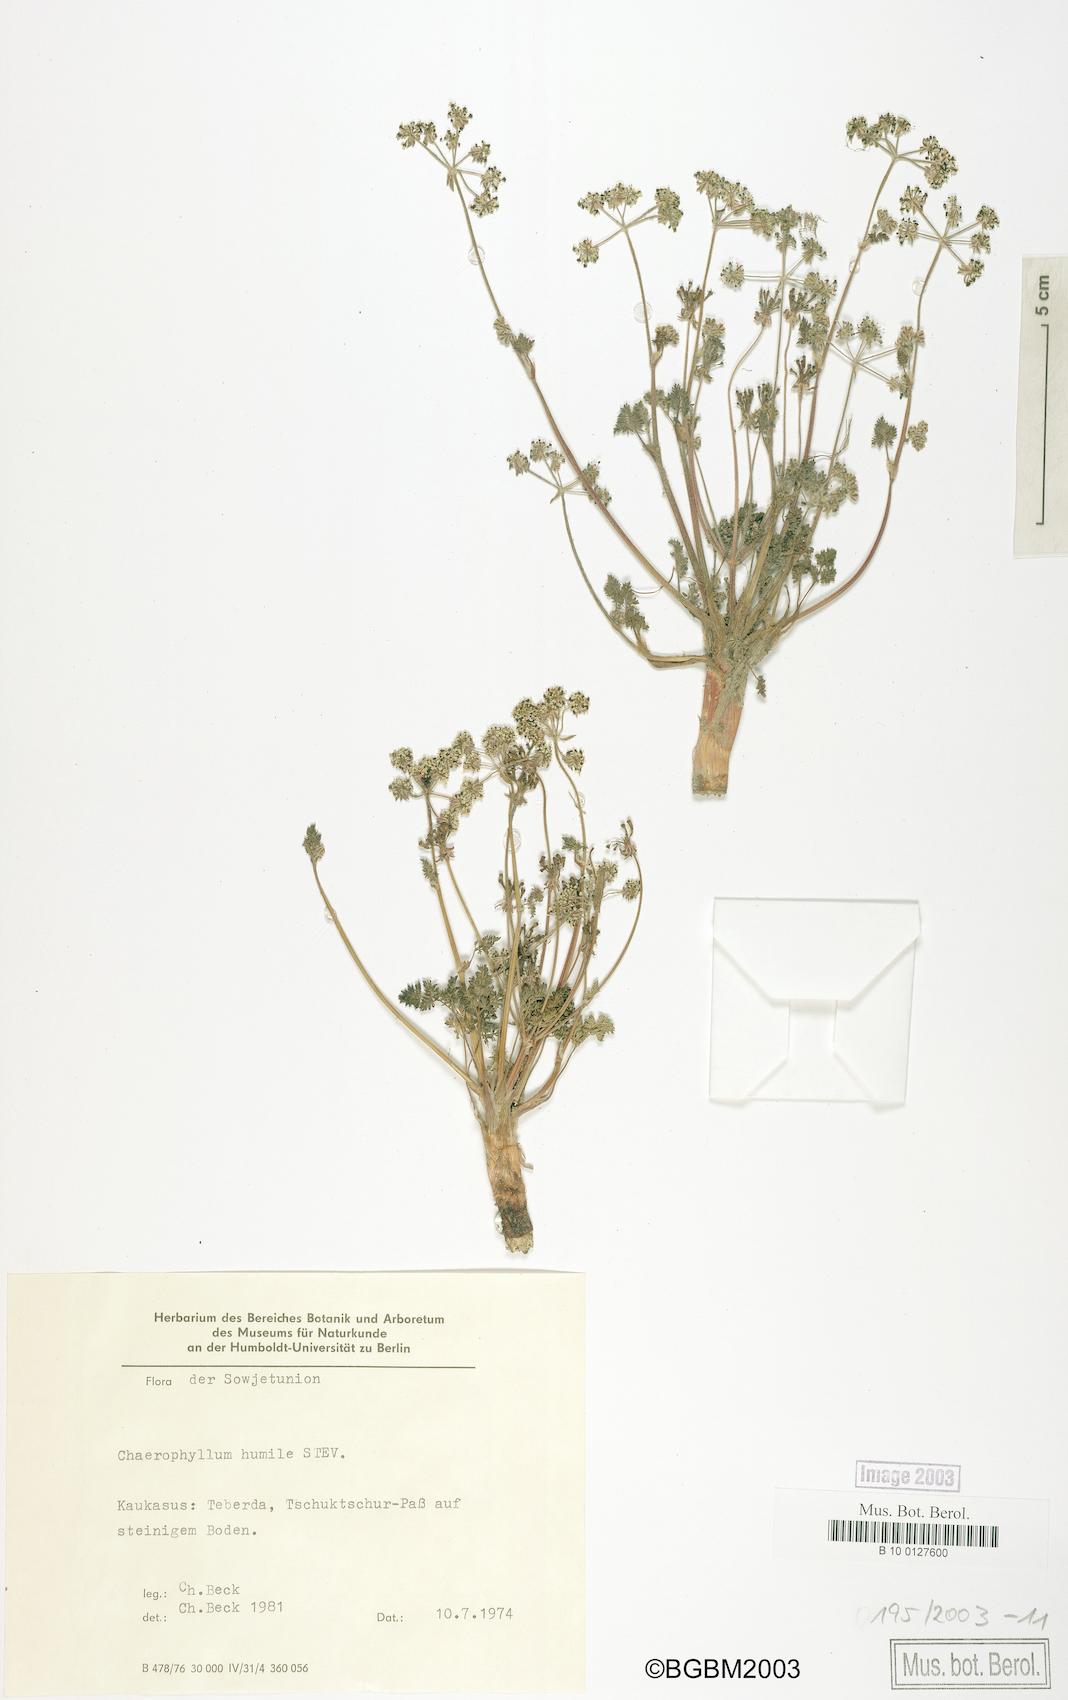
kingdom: Plantae
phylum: Tracheophyta
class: Magnoliopsida
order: Apiales
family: Apiaceae
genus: Chaerophyllum
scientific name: Chaerophyllum humile
